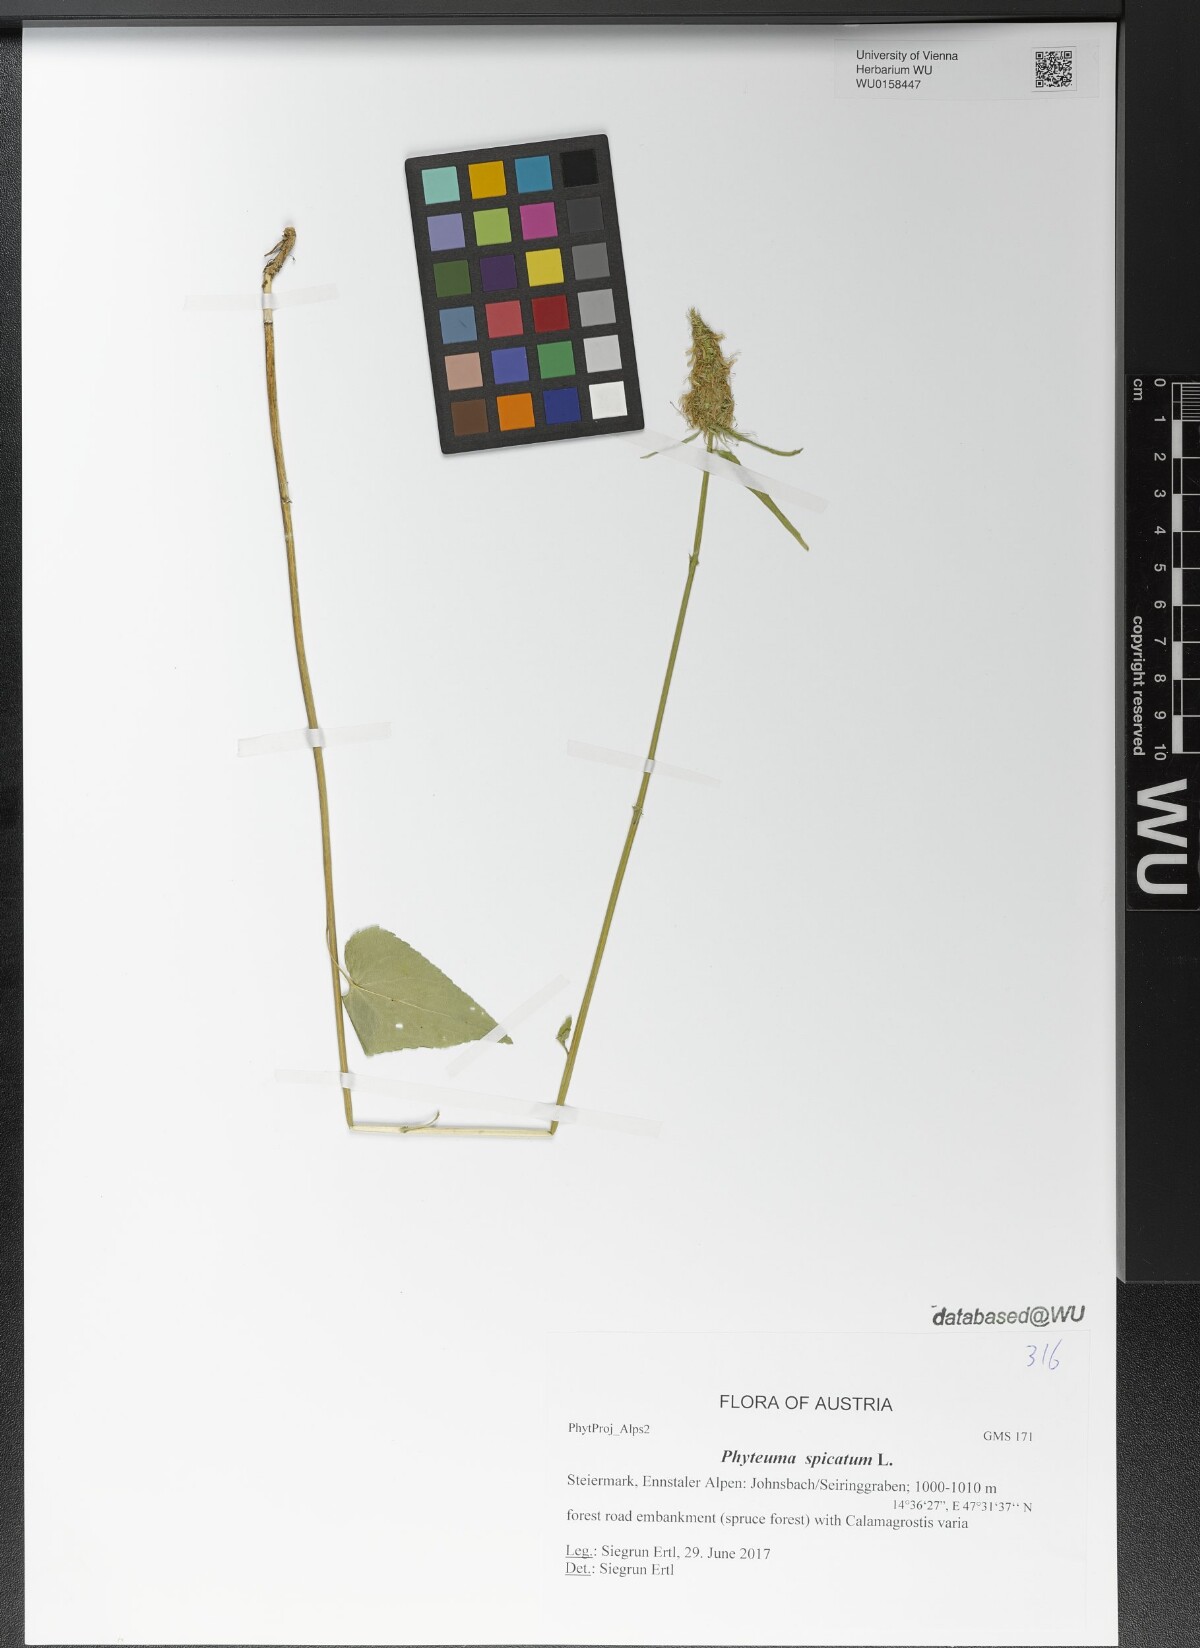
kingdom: Plantae
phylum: Tracheophyta
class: Magnoliopsida
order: Asterales
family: Campanulaceae
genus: Phyteuma
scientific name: Phyteuma spicatum
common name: Spiked rampion
